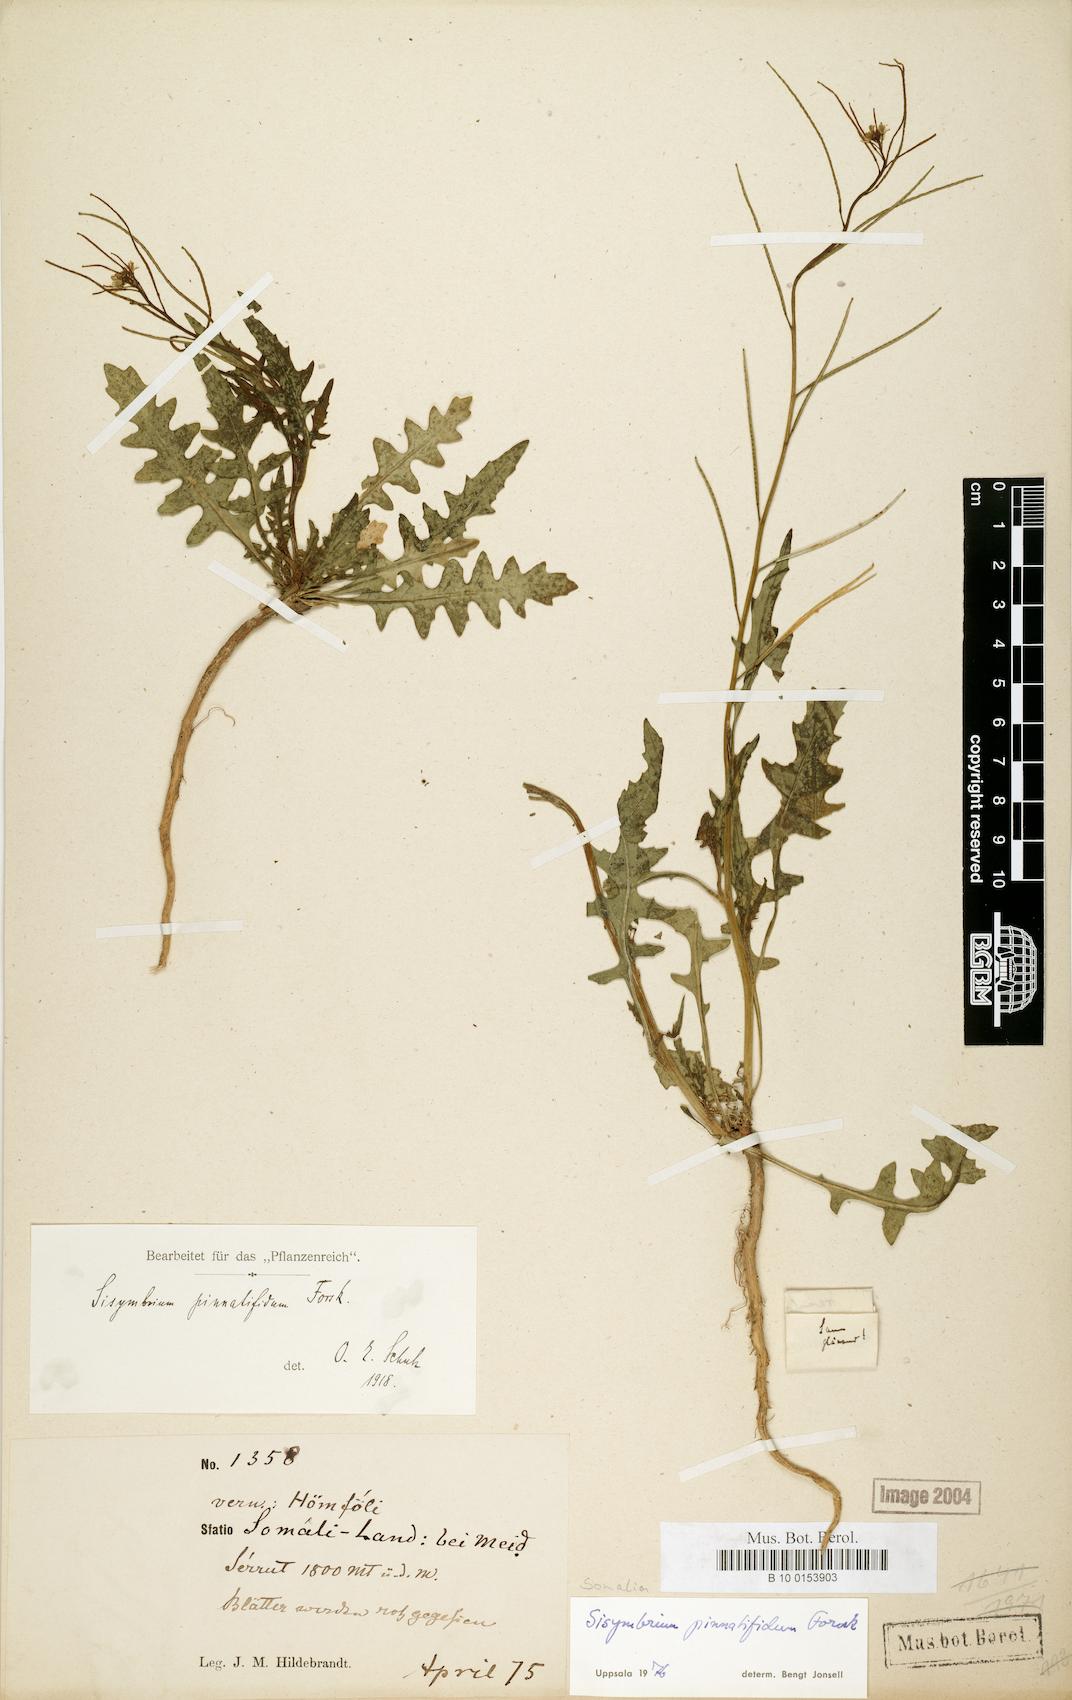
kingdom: Plantae
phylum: Tracheophyta
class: Magnoliopsida
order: Brassicales
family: Brassicaceae
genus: Sisymbrium
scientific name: Sisymbrium irio
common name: London rocket
